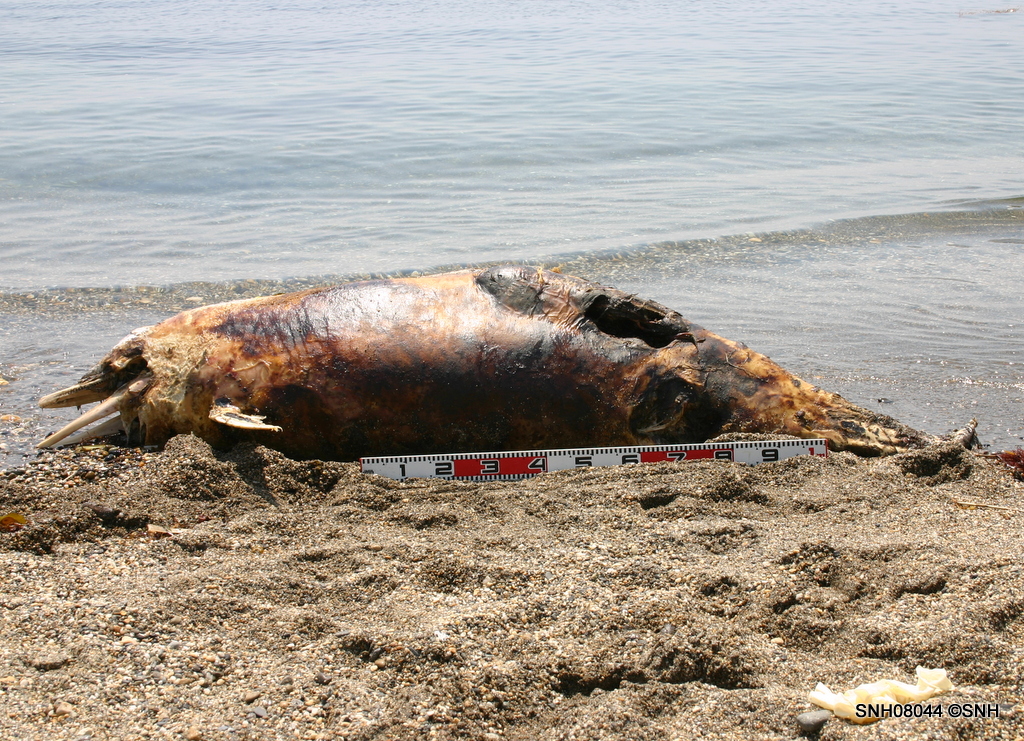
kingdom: Animalia
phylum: Chordata
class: Mammalia
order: Cetacea
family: Delphinidae
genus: Lagenorhynchus
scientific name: Lagenorhynchus obliquidens
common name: Pacific white-sided dolphin
